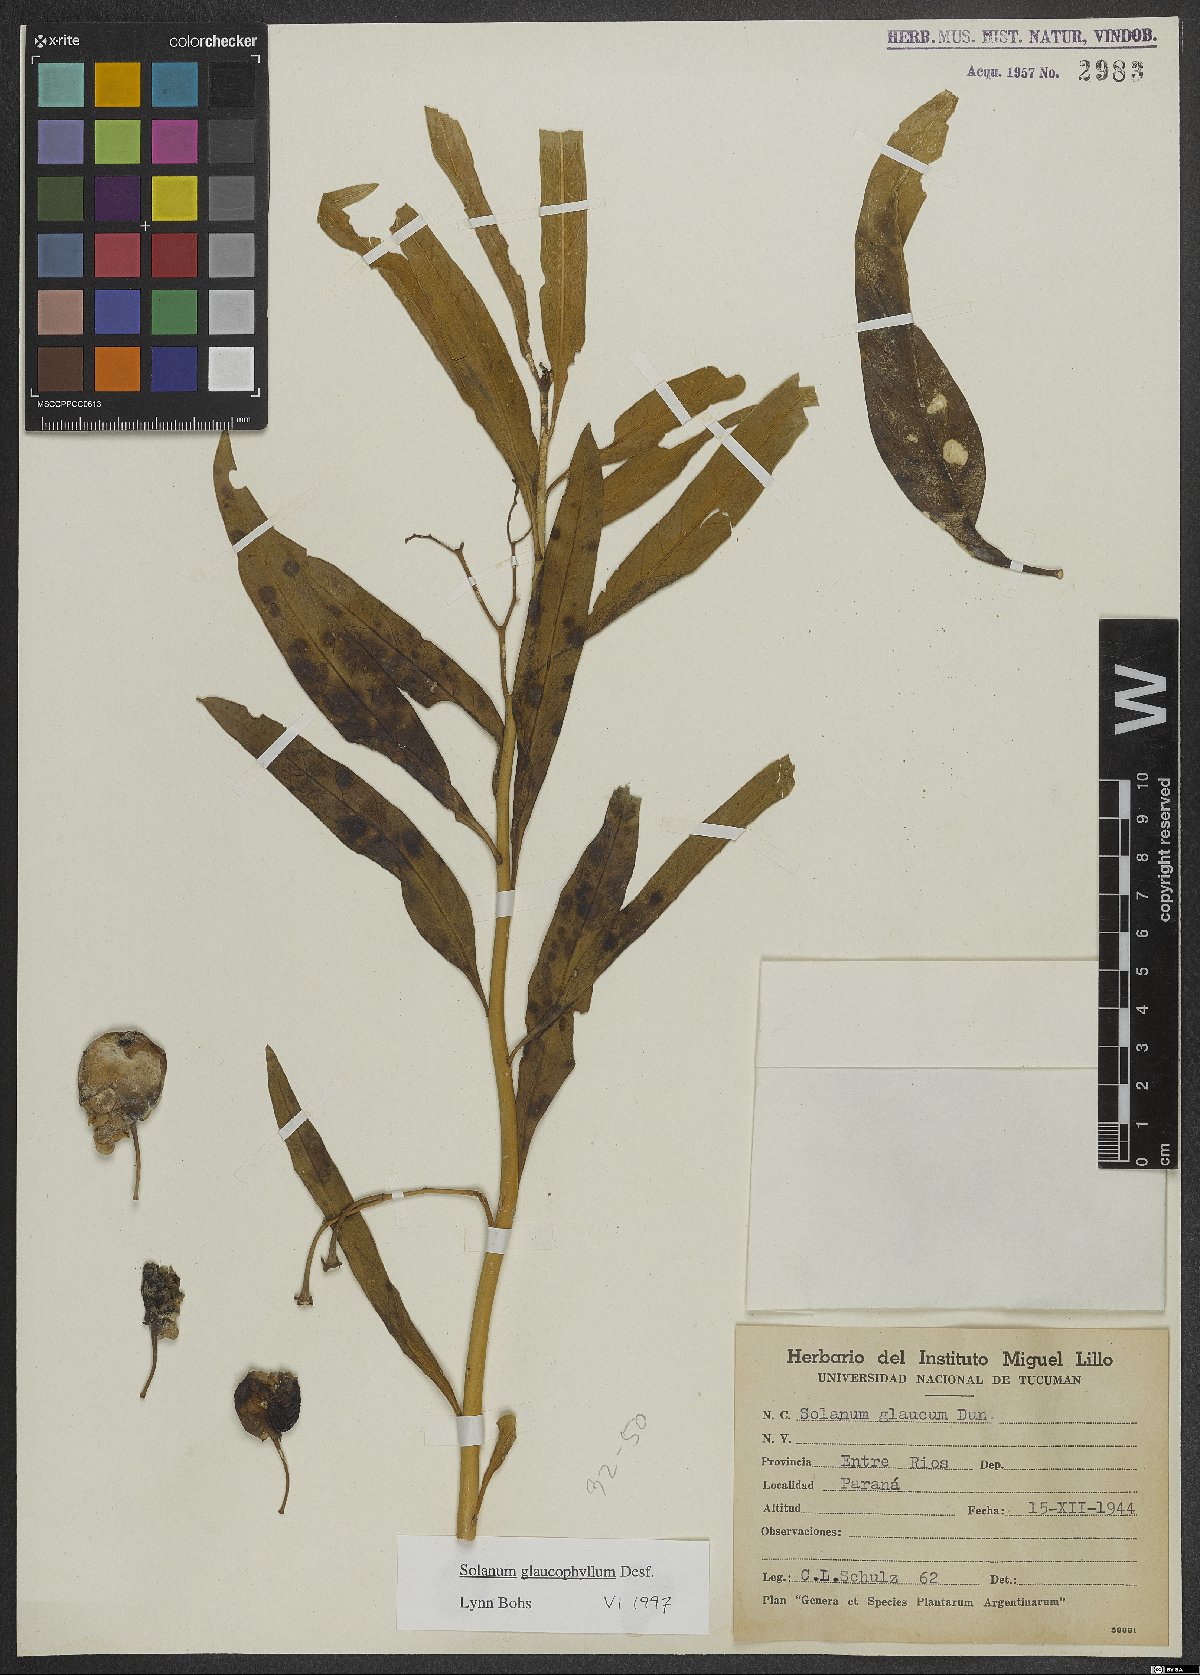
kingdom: Plantae
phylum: Tracheophyta
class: Magnoliopsida
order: Solanales
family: Solanaceae
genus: Solanum
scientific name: Solanum glaucophyllum
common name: Waxyleaf nightshade
